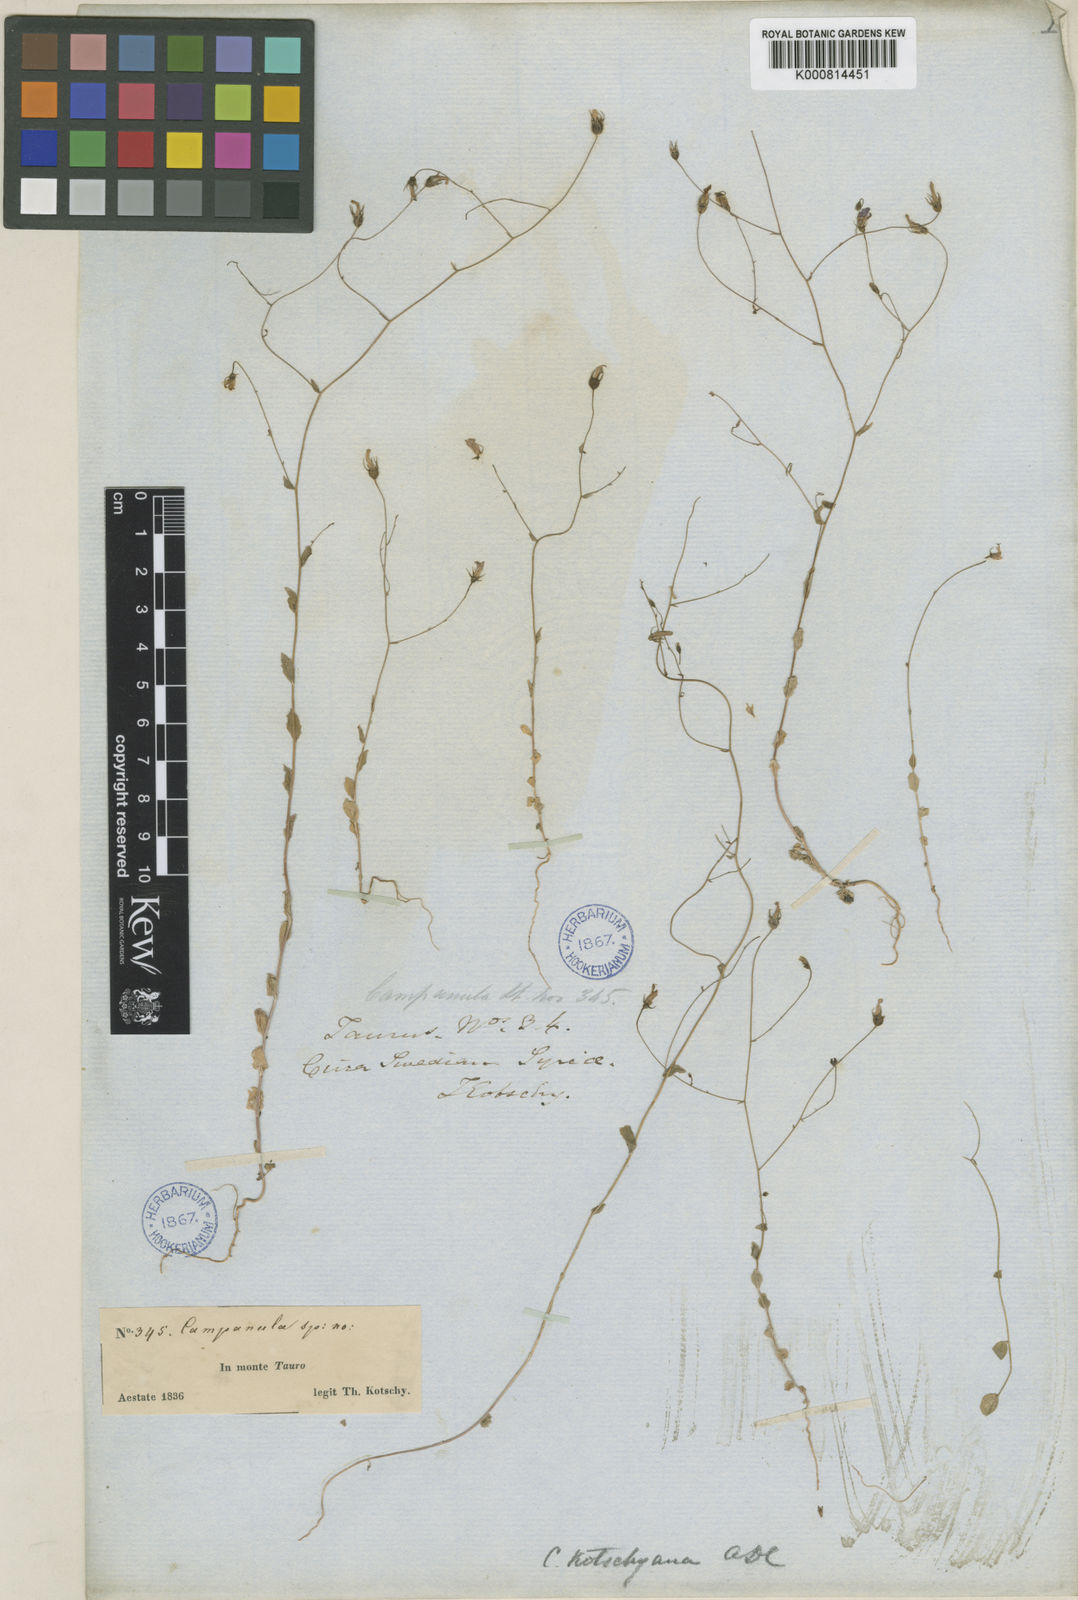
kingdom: Plantae
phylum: Tracheophyta
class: Magnoliopsida
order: Asterales
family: Campanulaceae
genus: Campanula
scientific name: Campanula kotschyana
